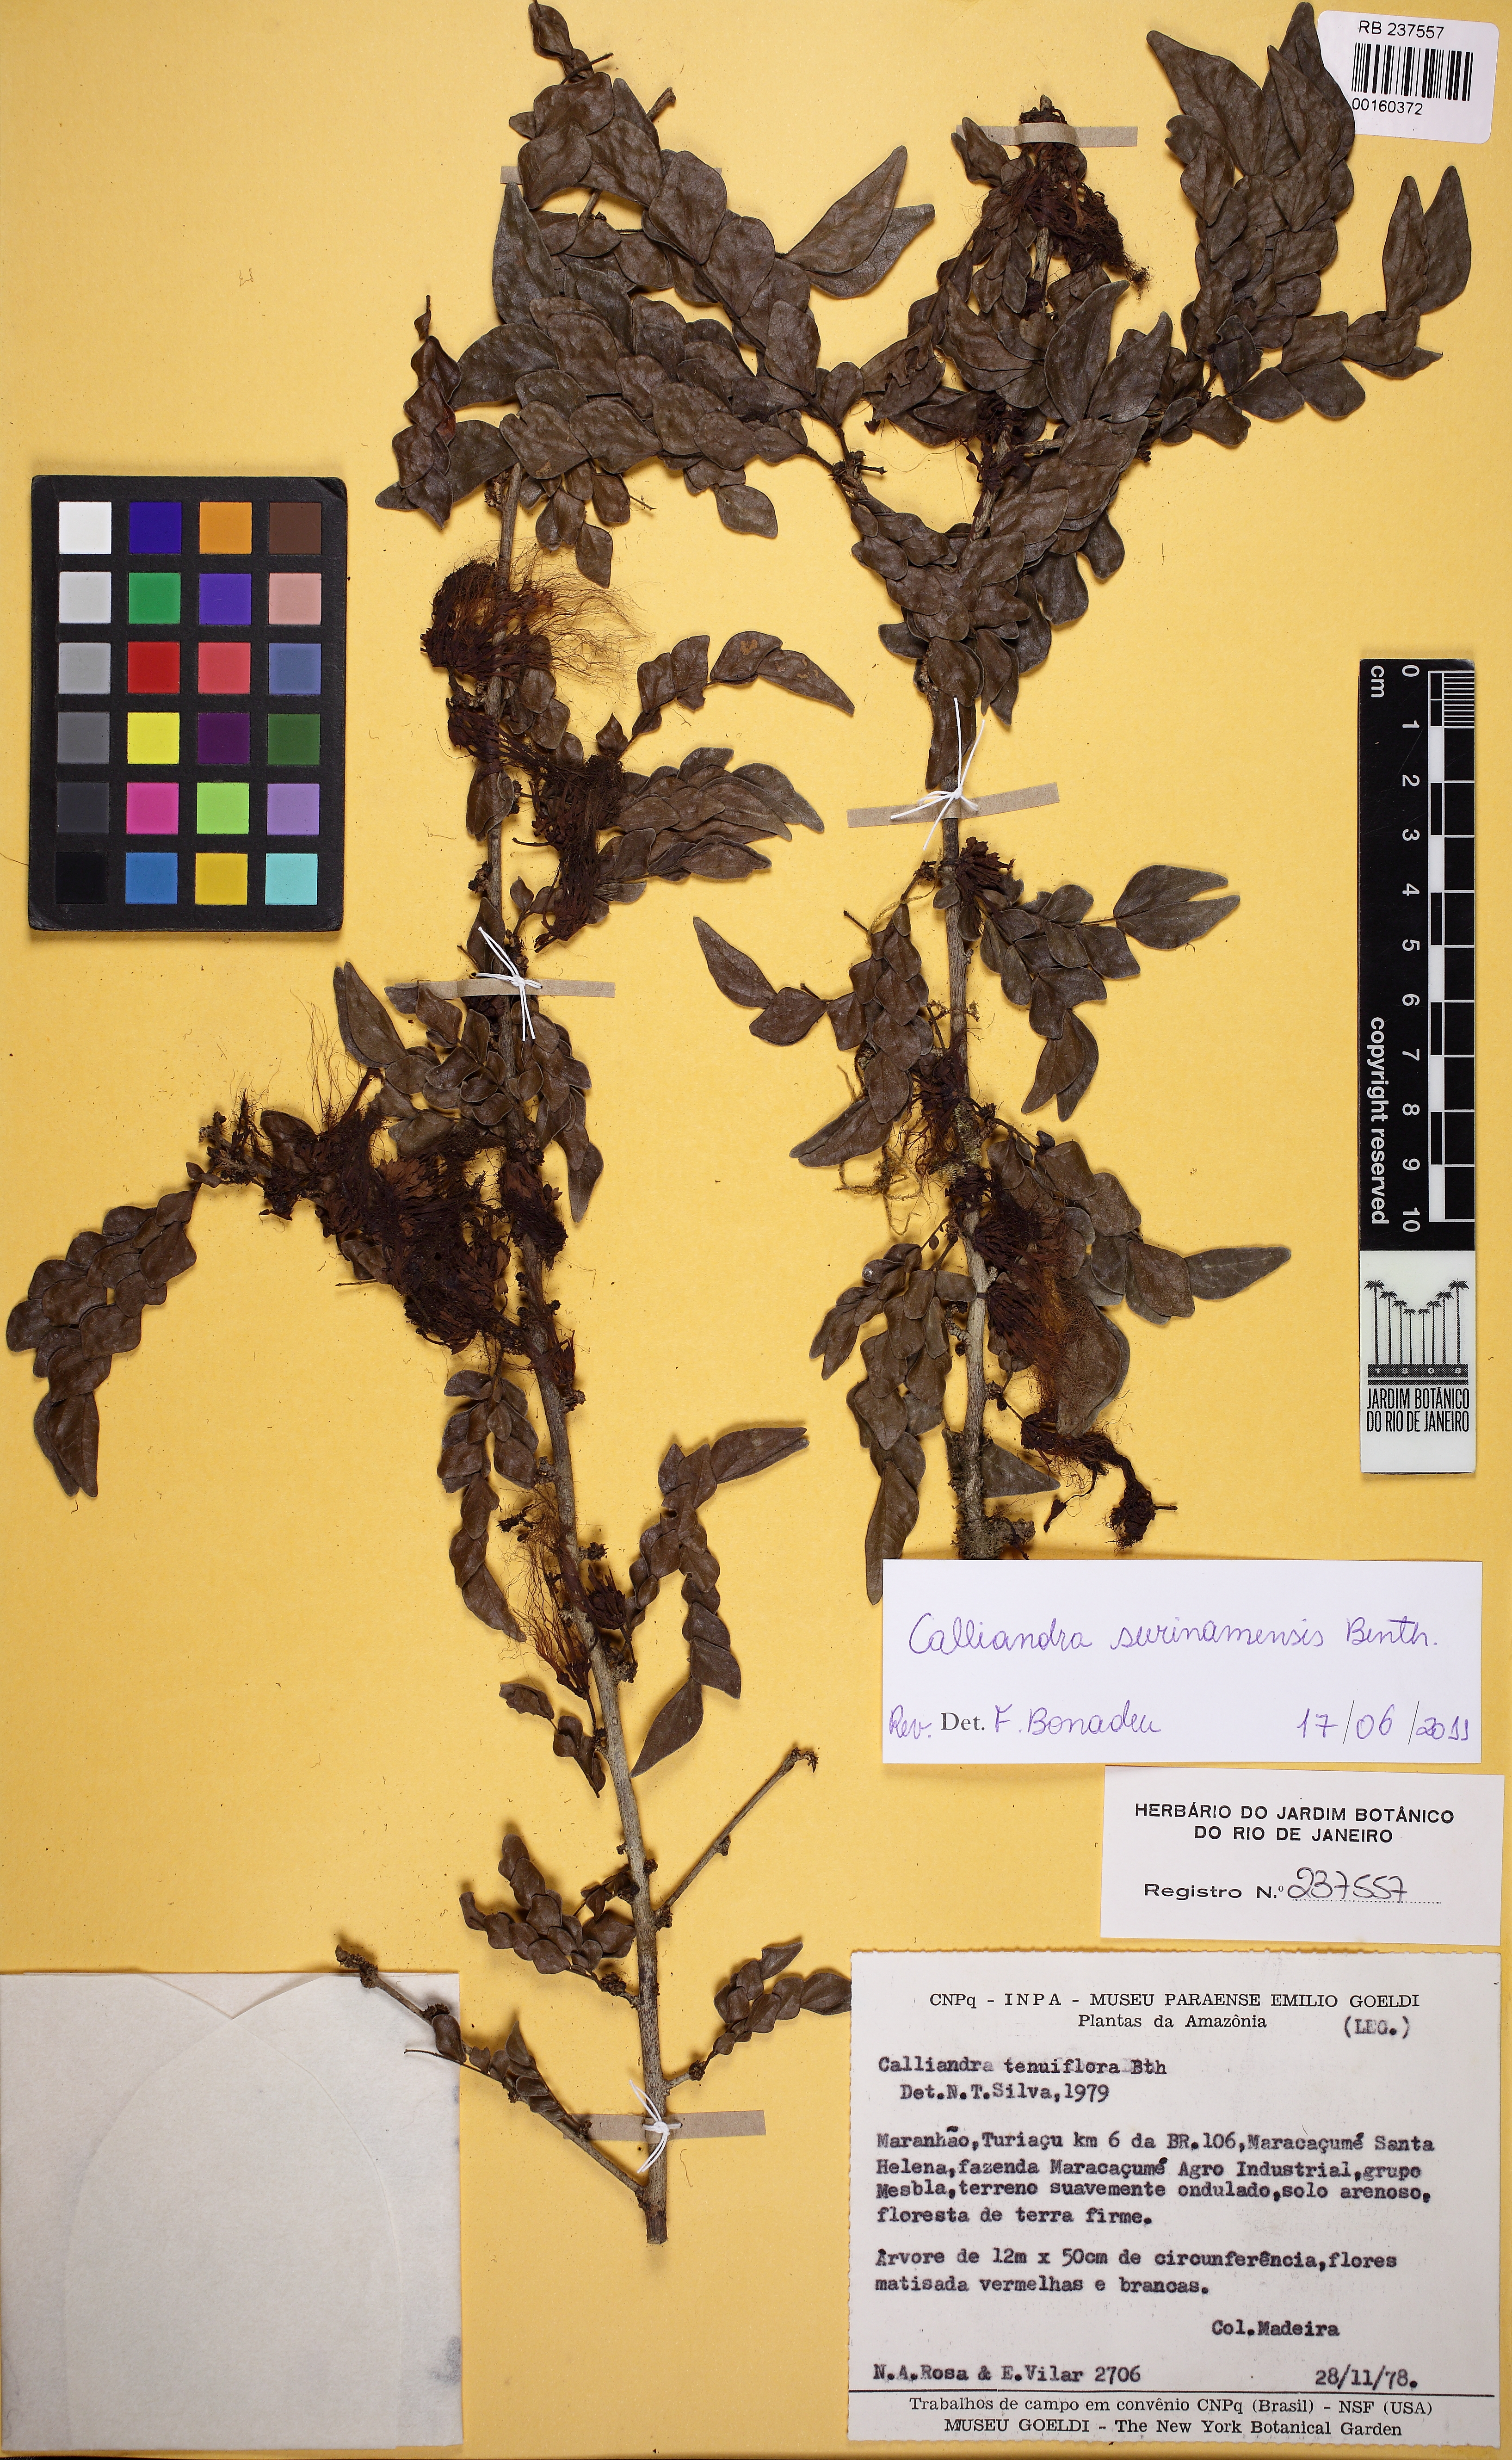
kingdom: Plantae
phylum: Tracheophyta
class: Magnoliopsida
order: Fabales
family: Fabaceae
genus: Calliandra
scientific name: Calliandra surinamensis
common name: Pink powder puff
